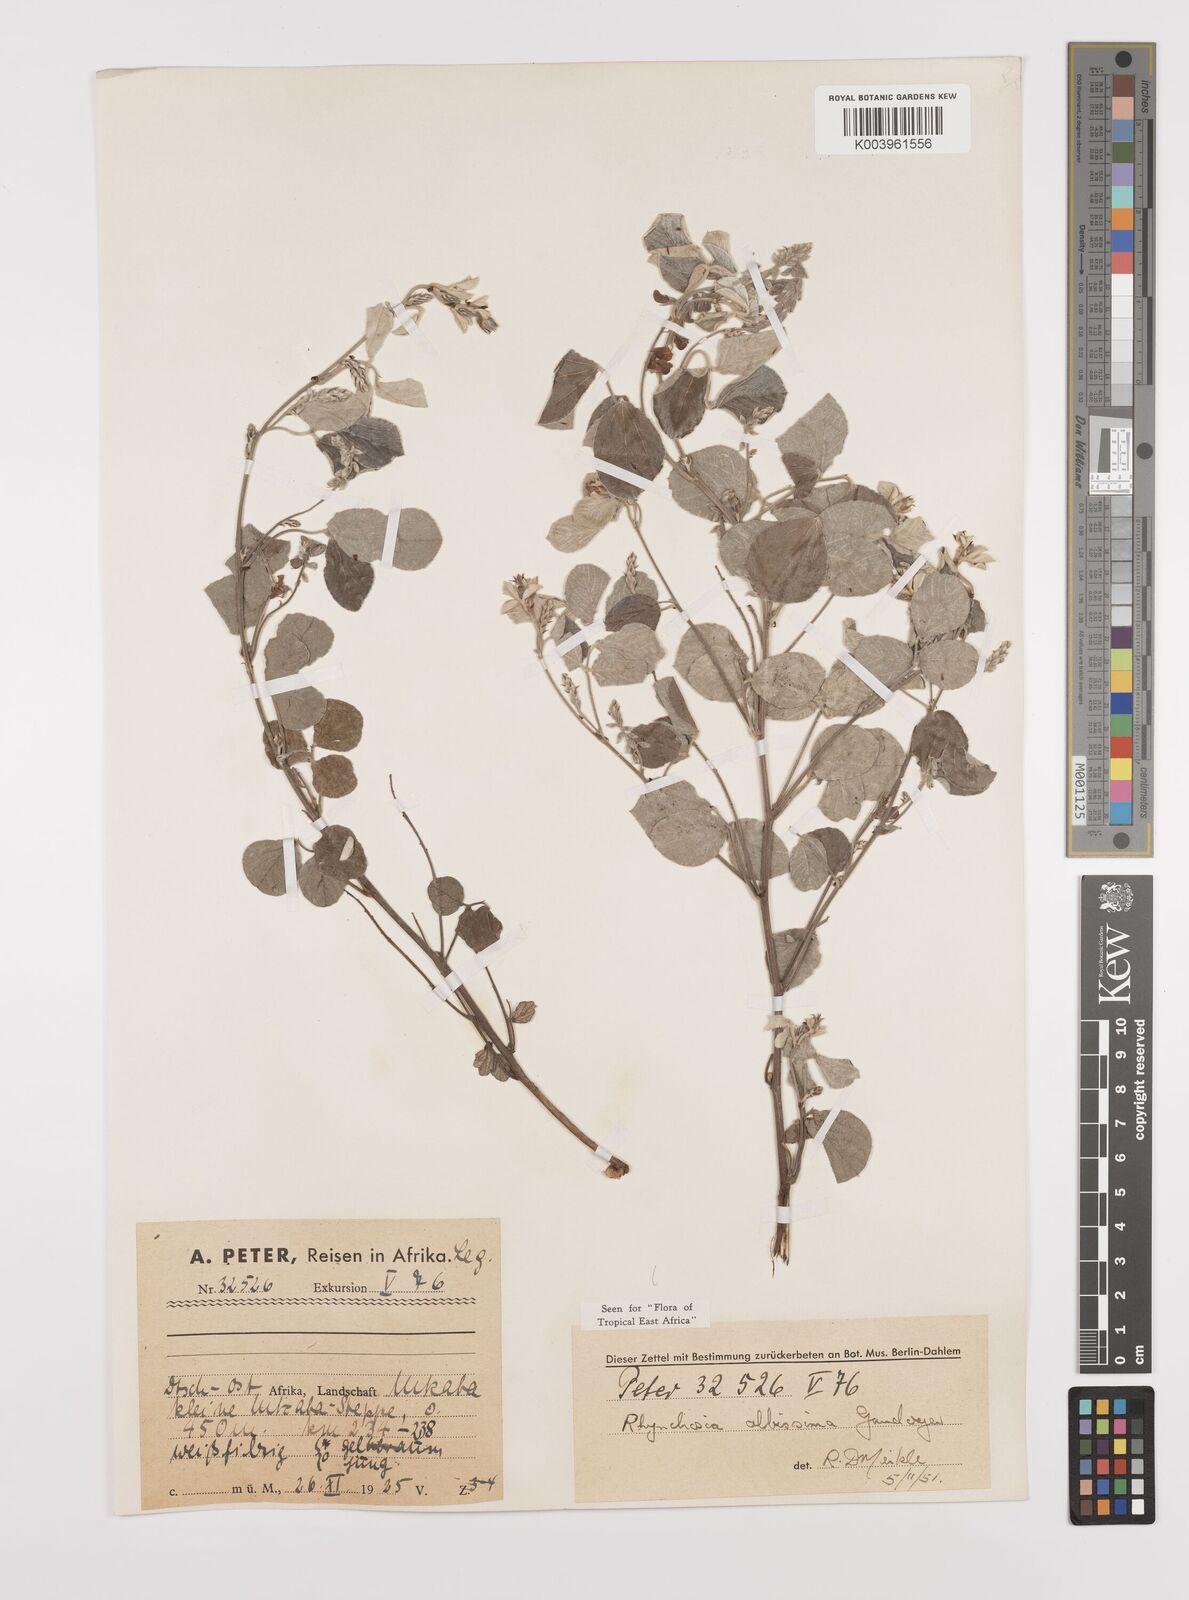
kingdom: Plantae
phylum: Tracheophyta
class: Magnoliopsida
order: Fabales
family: Fabaceae
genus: Rhynchosia
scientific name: Rhynchosia albissima
